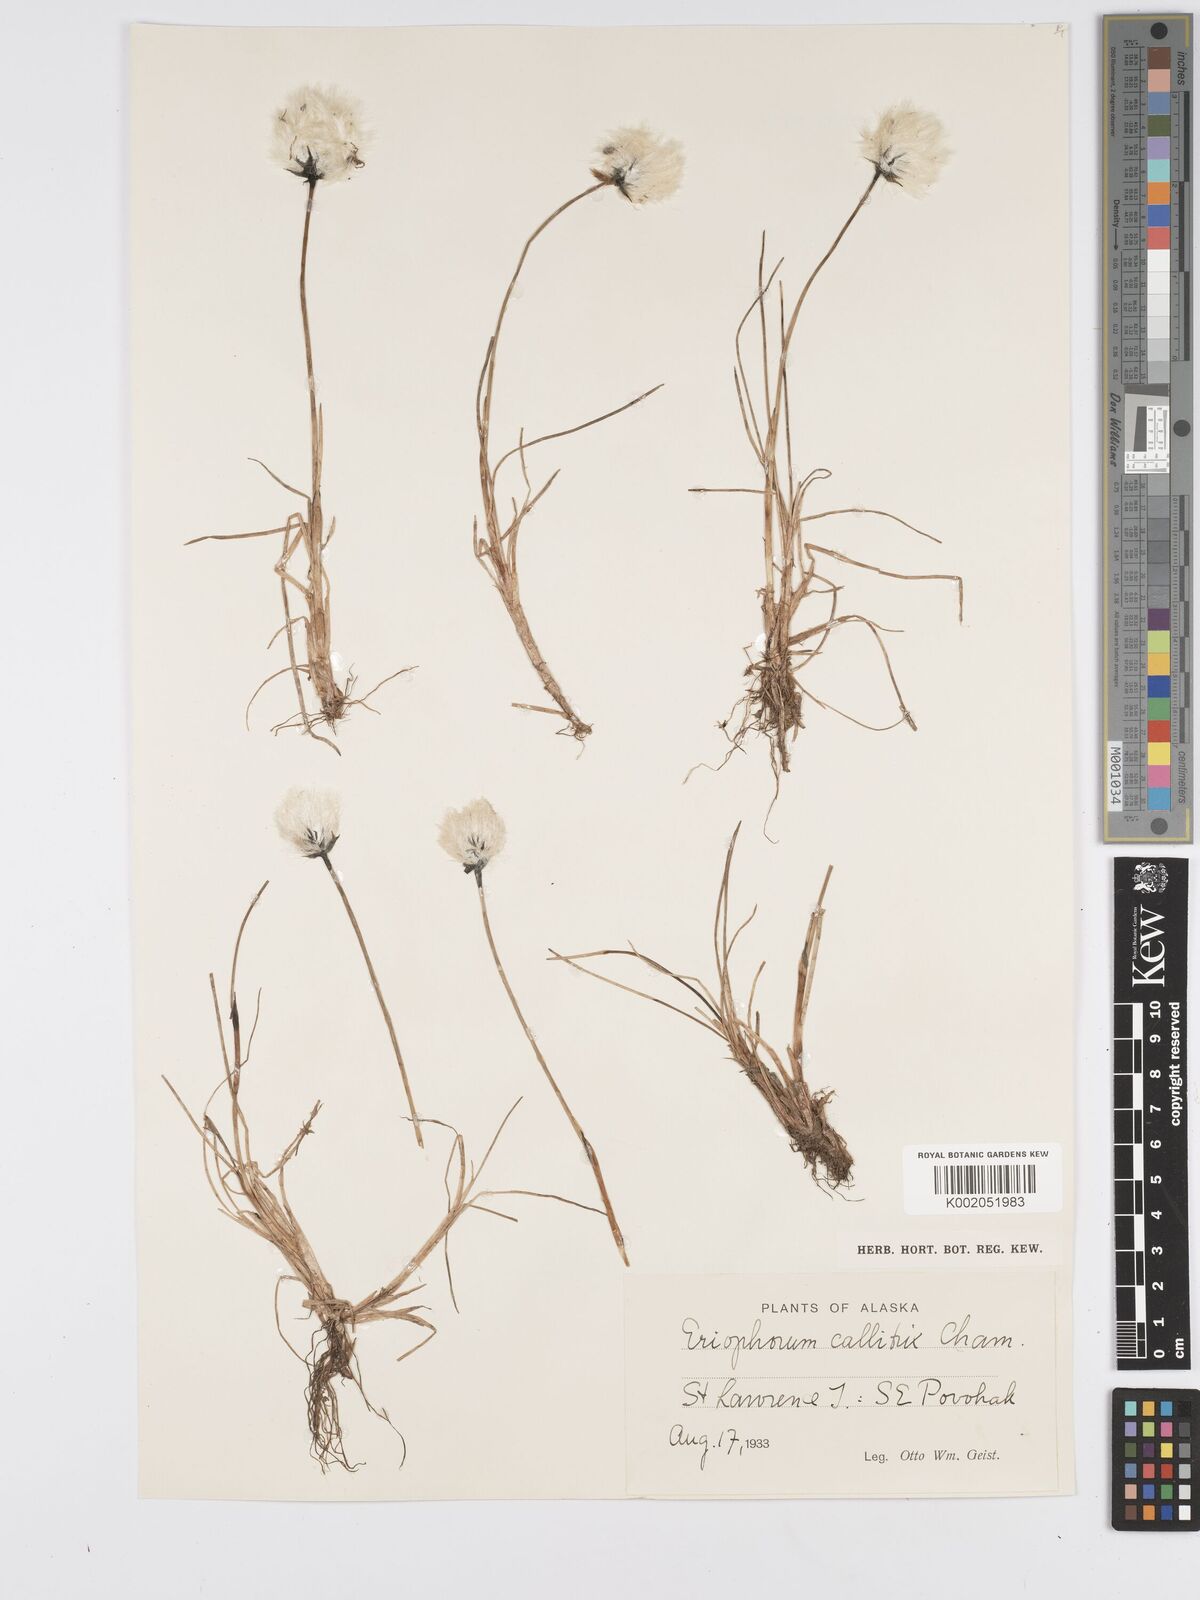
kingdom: Plantae
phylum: Tracheophyta
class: Liliopsida
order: Poales
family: Cyperaceae
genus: Eriophorum
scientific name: Eriophorum callitrix
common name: Arctic cottongrass
